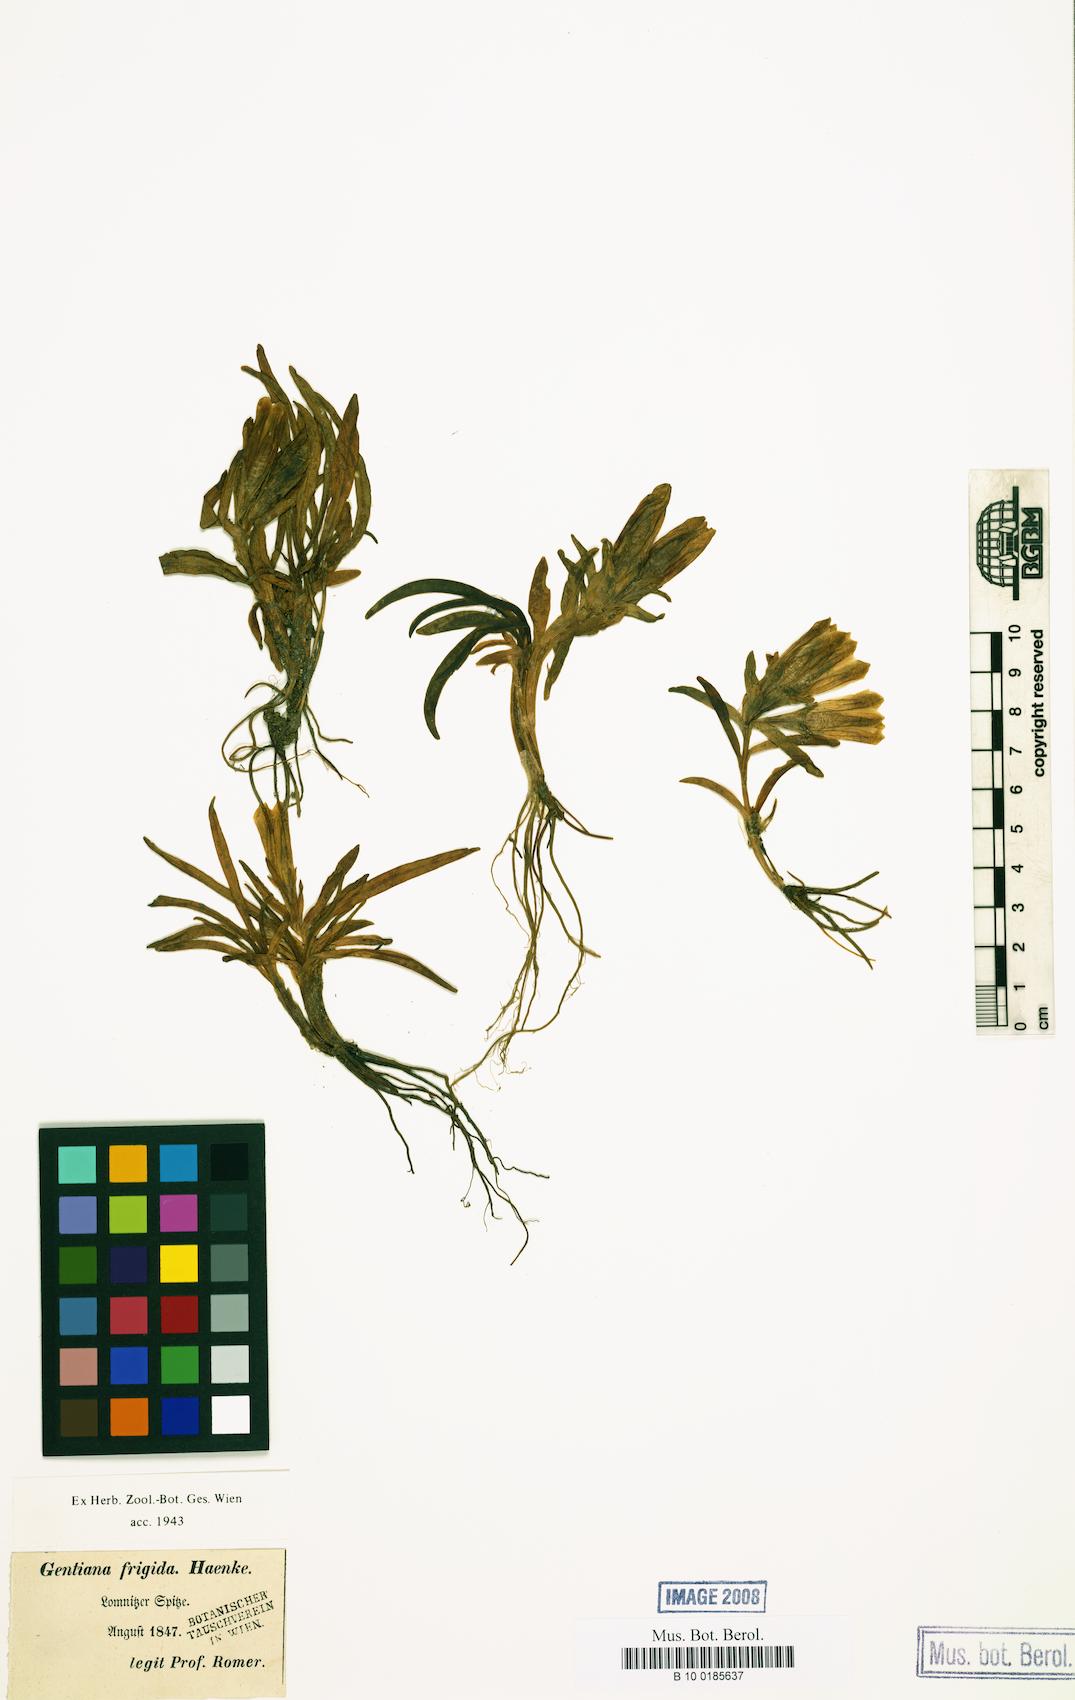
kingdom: Plantae
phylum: Tracheophyta
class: Magnoliopsida
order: Gentianales
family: Gentianaceae
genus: Gentiana
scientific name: Gentiana frigida
